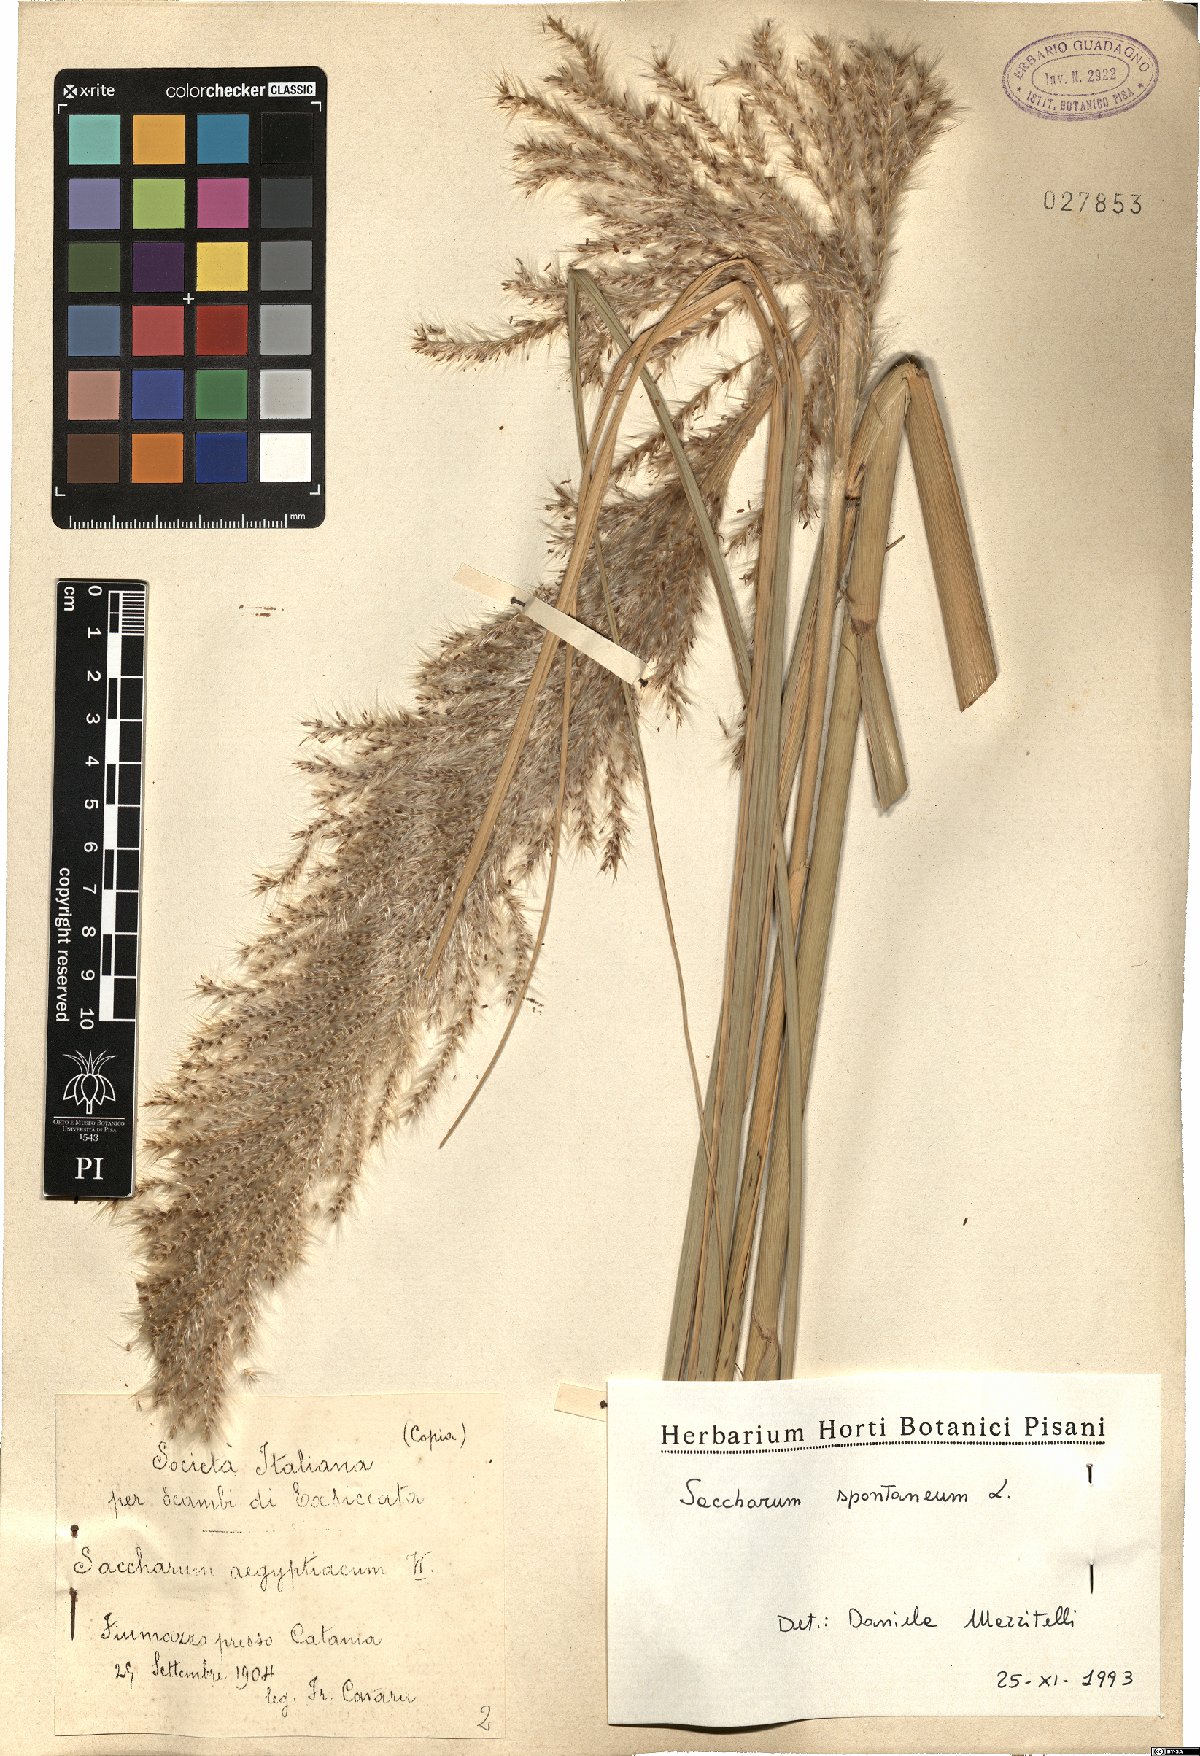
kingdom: Plantae
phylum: Tracheophyta
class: Liliopsida
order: Poales
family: Poaceae
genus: Saccharum
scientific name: Saccharum spontaneum
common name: Wild sugarcane
